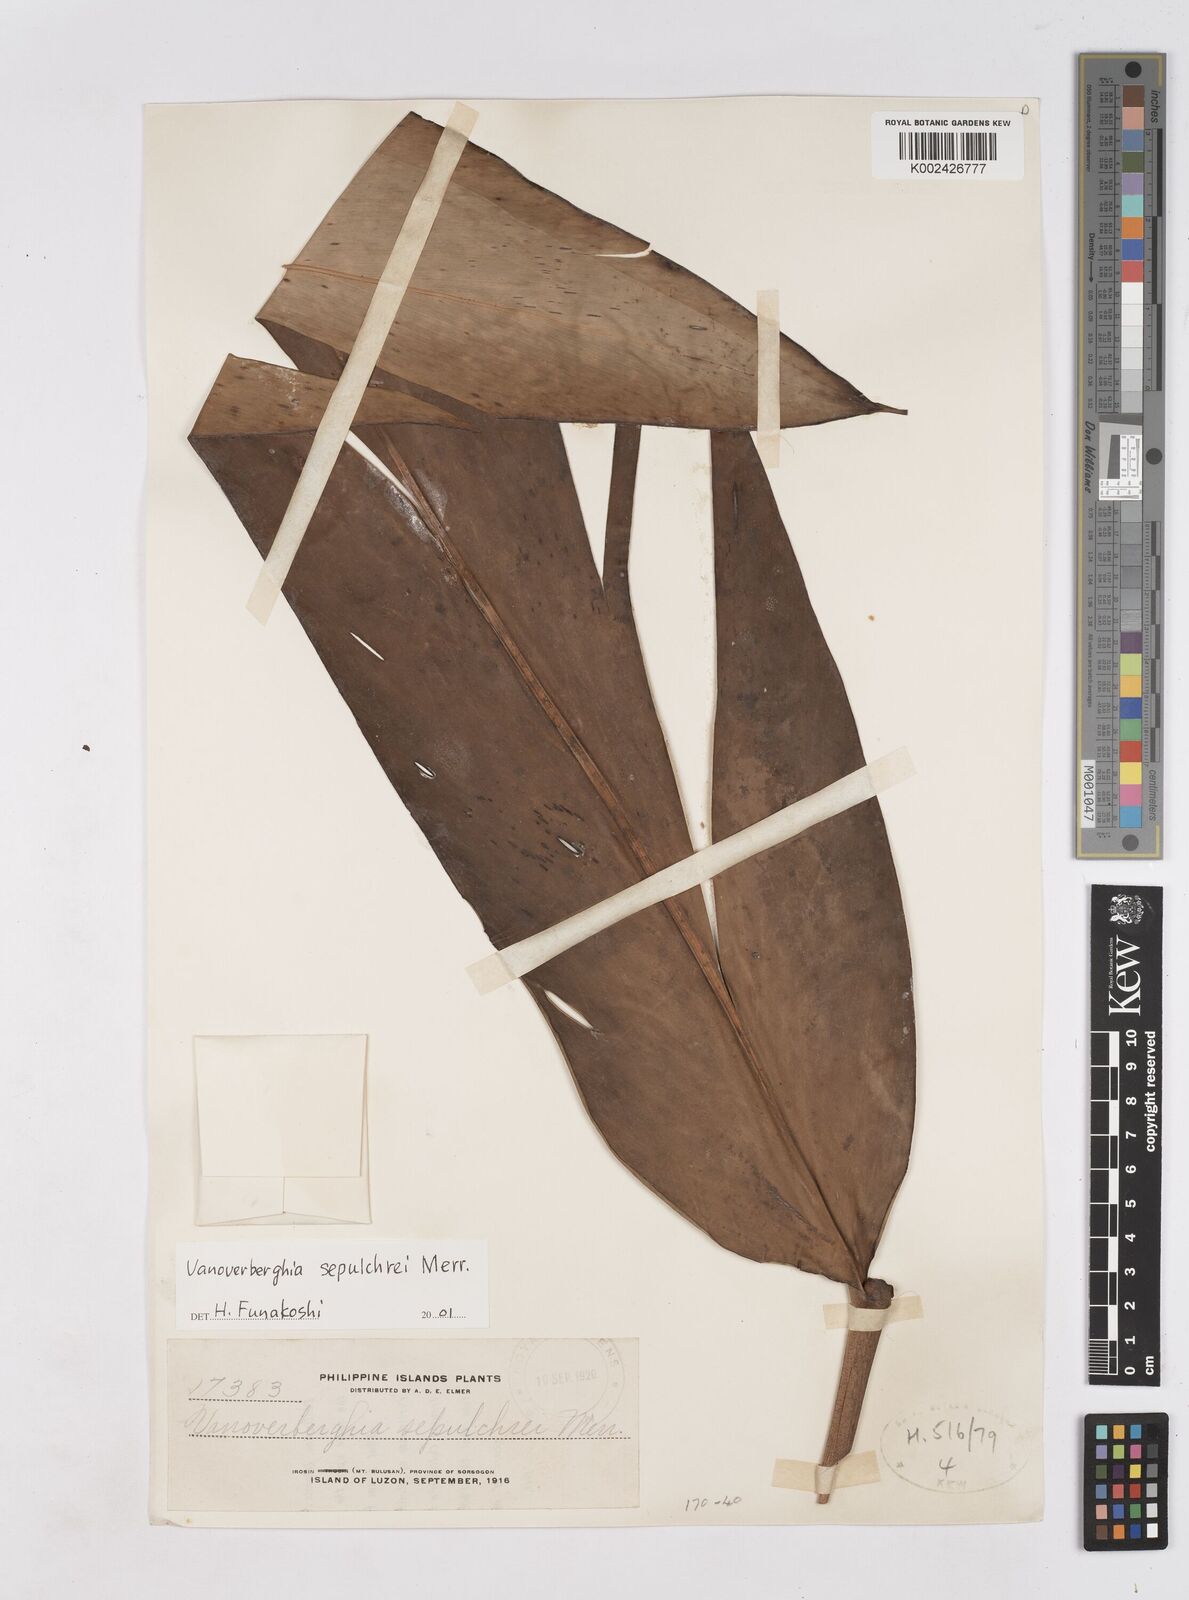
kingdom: Plantae
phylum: Tracheophyta
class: Liliopsida
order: Zingiberales
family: Zingiberaceae
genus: Vanoverberghia
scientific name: Vanoverberghia sepulchrei
